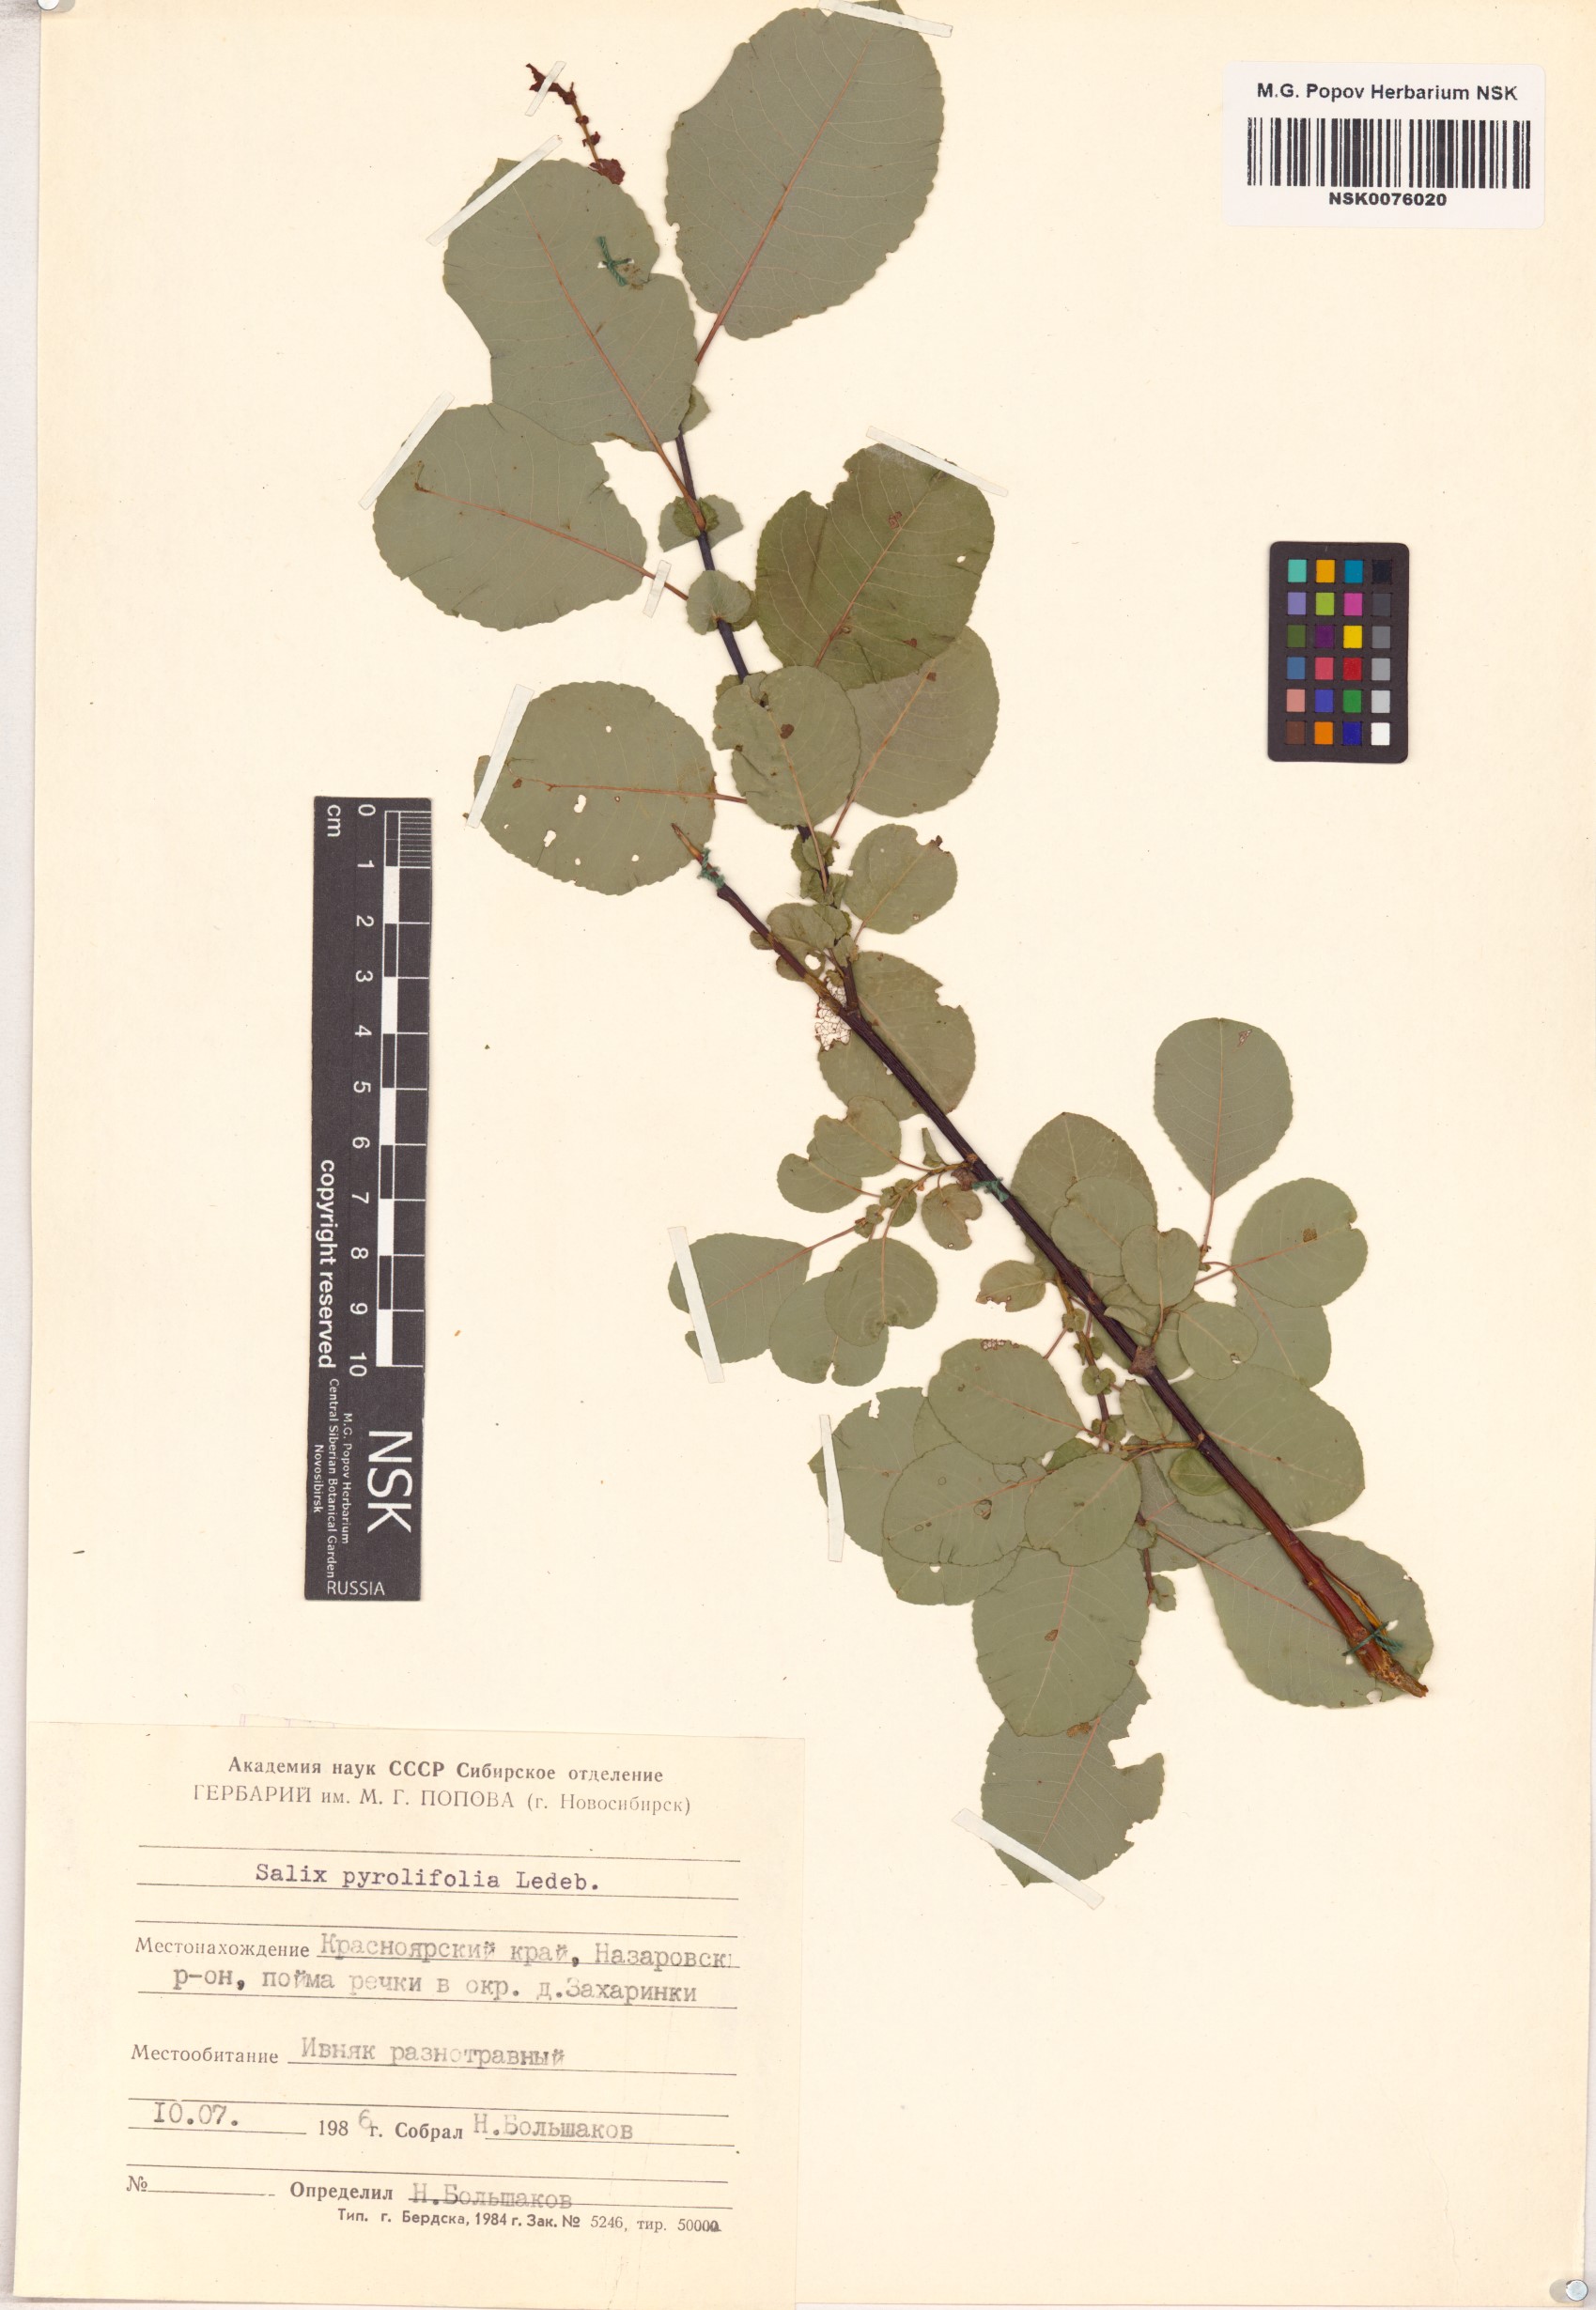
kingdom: Plantae
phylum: Tracheophyta
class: Magnoliopsida
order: Malpighiales
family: Salicaceae
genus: Salix
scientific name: Salix pyrolifolia
